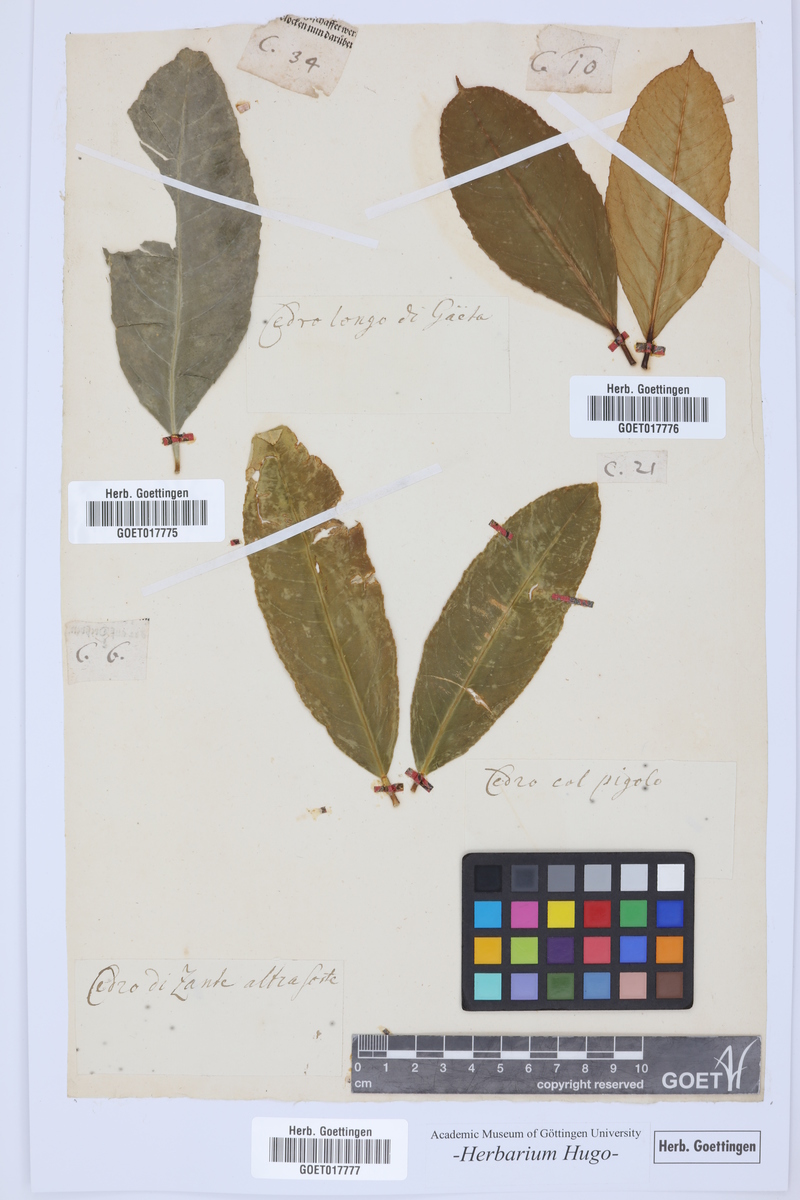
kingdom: Plantae
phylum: Tracheophyta
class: Magnoliopsida
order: Sapindales
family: Rutaceae
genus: Citrus
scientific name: Citrus
